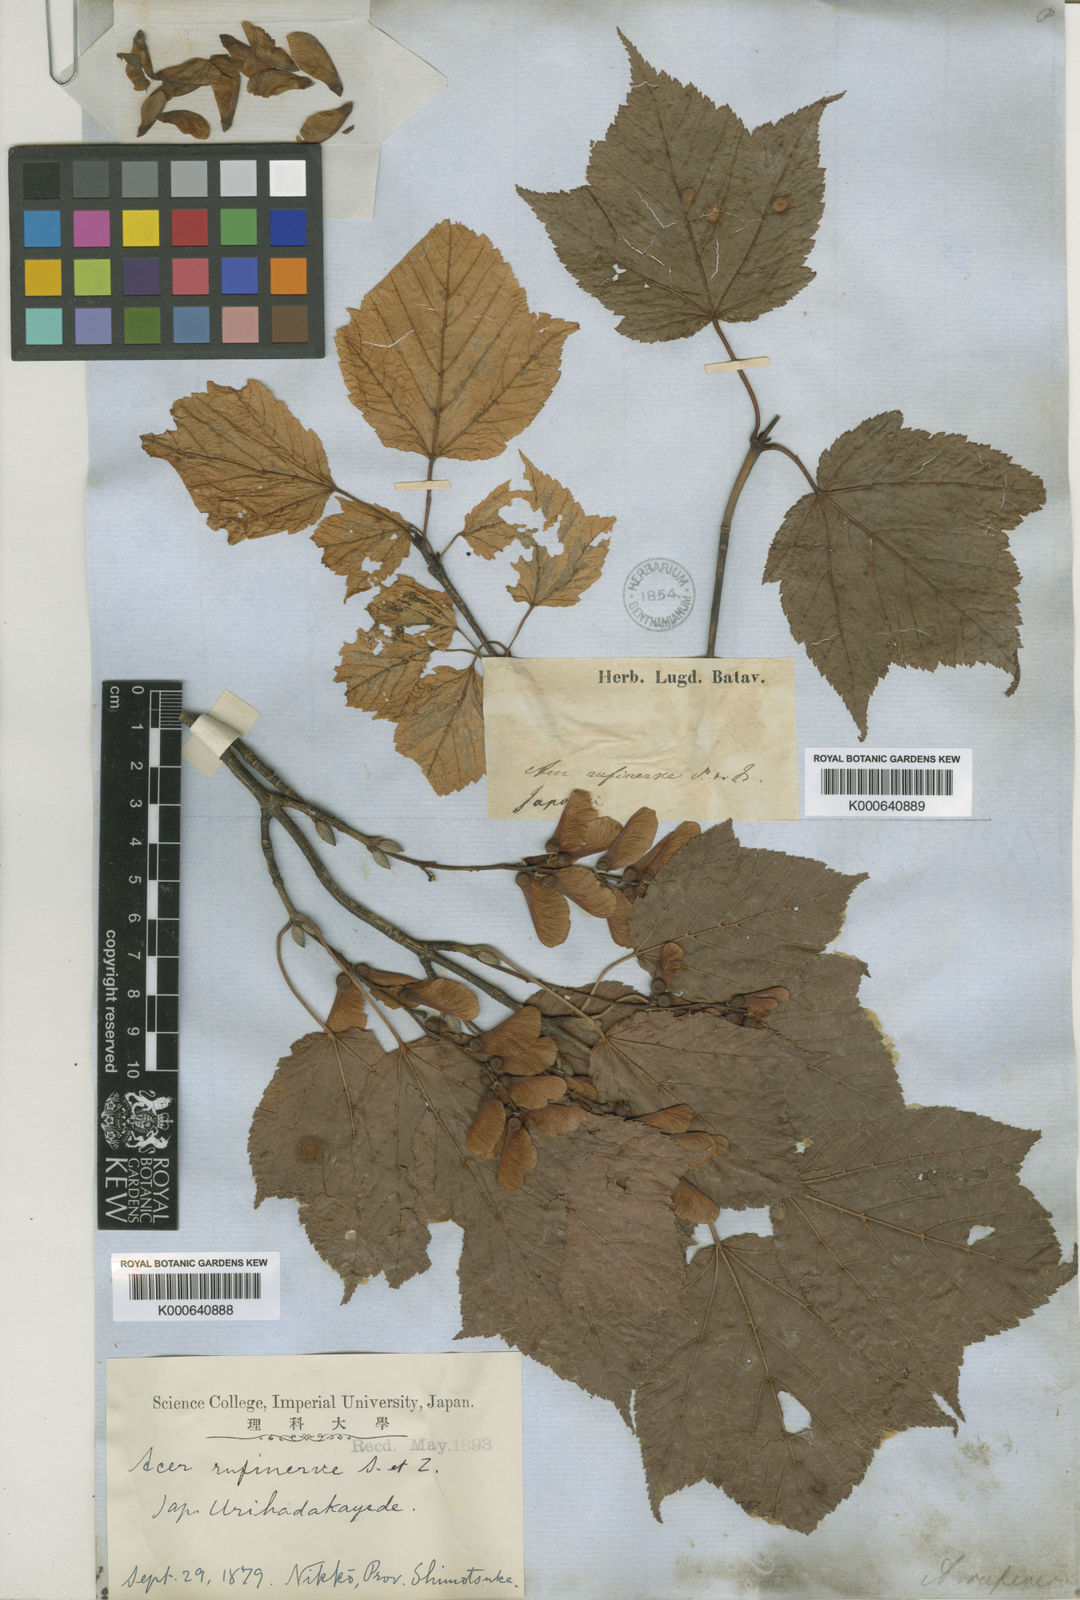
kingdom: Plantae
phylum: Tracheophyta
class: Magnoliopsida
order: Sapindales
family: Sapindaceae
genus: Acer
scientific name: Acer rufinerve
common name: Red veined maple
